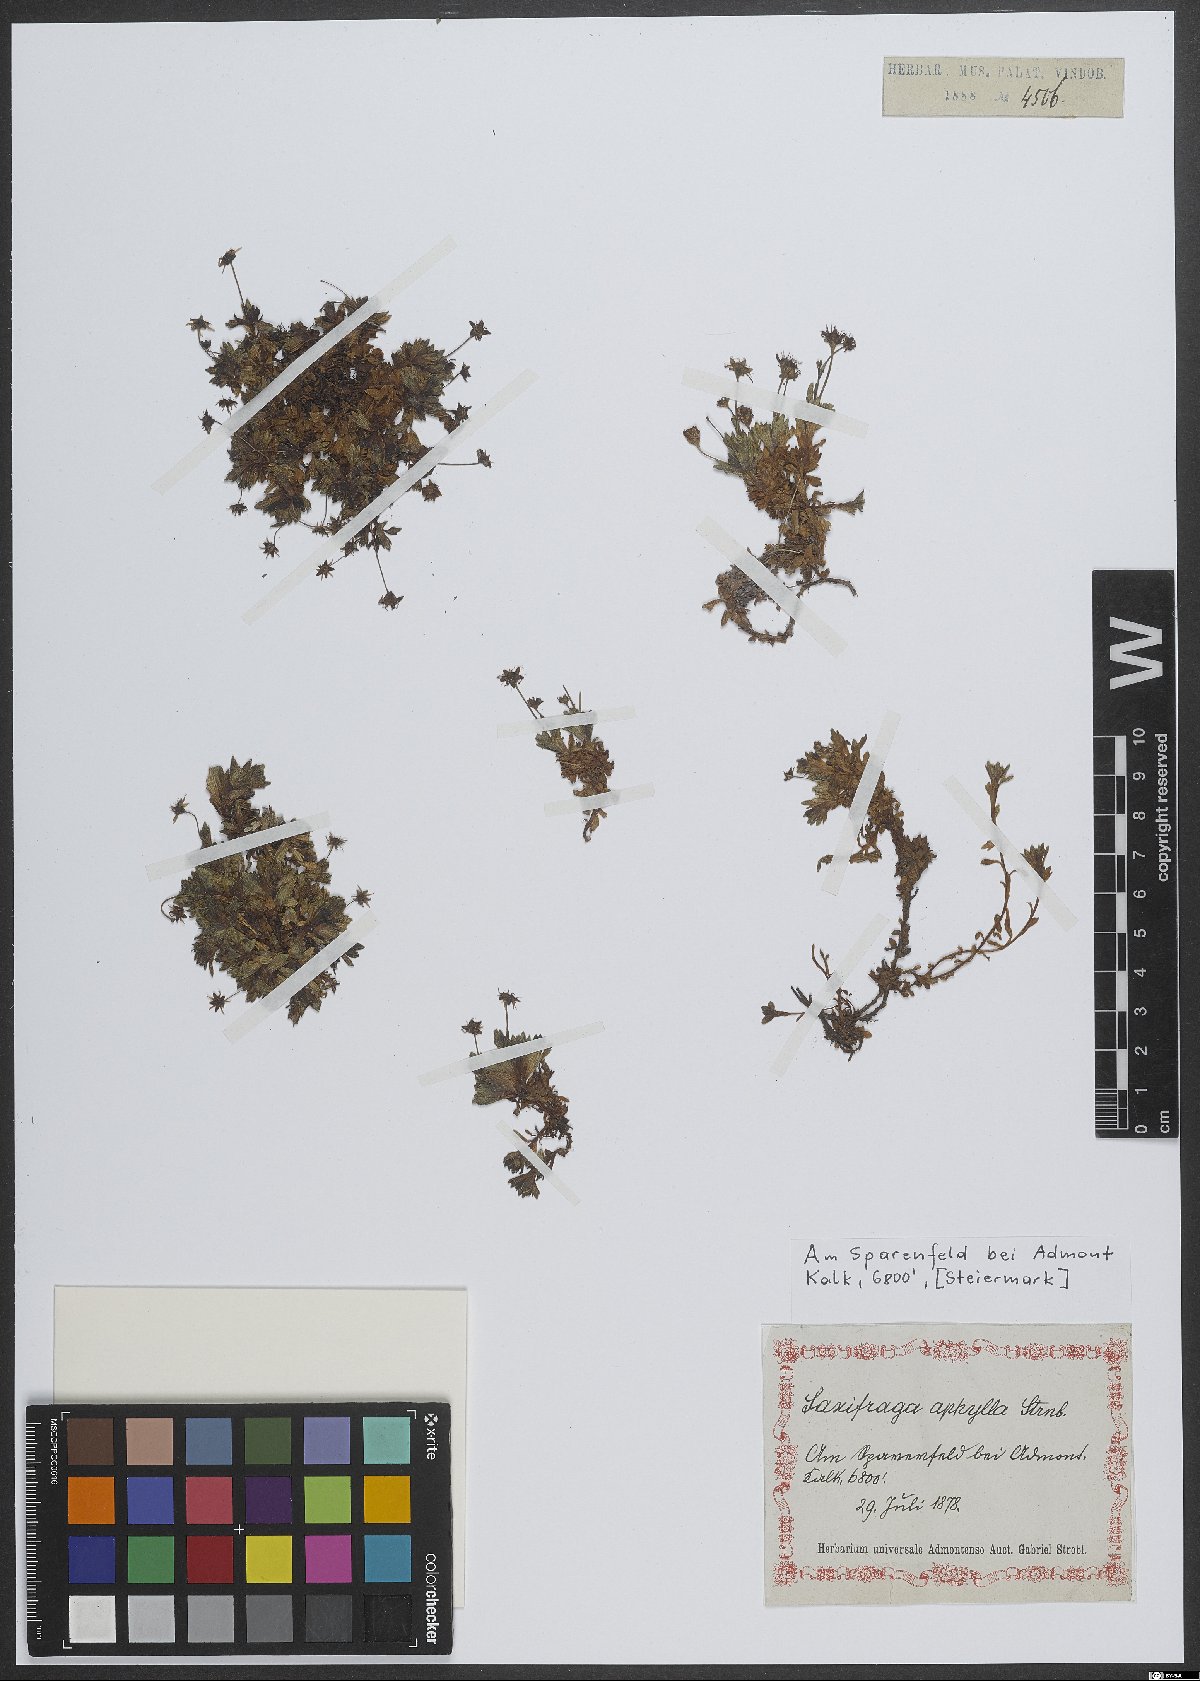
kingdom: Plantae
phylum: Tracheophyta
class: Magnoliopsida
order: Saxifragales
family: Saxifragaceae
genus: Saxifraga
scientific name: Saxifraga aphylla
